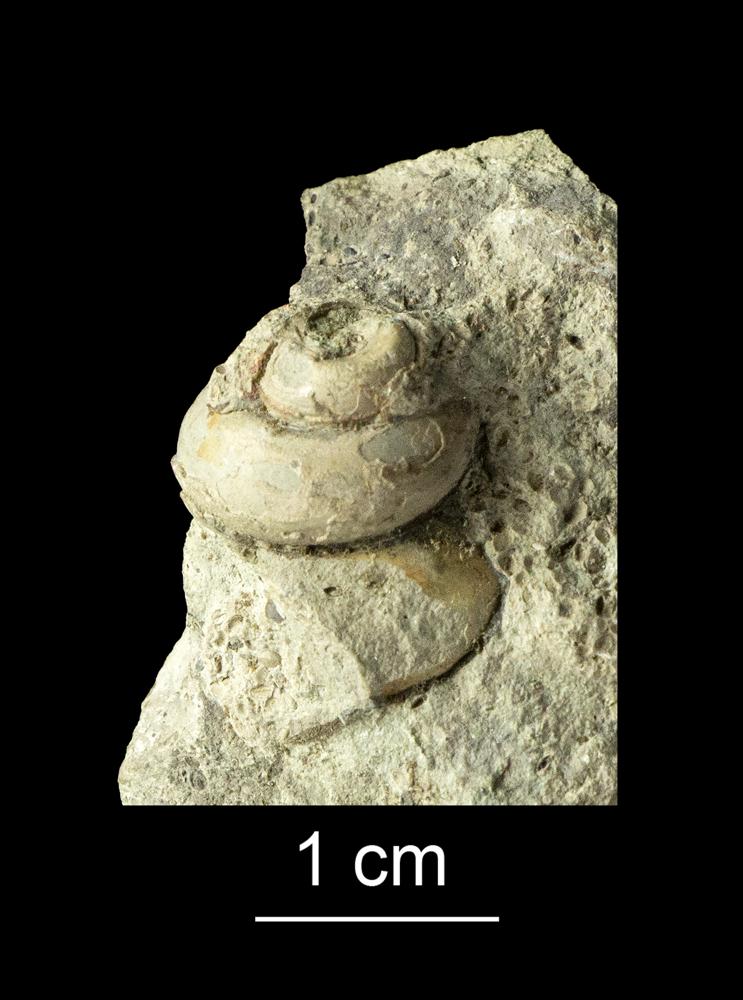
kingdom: Animalia
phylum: Mollusca
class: Gastropoda
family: Lophospiridae
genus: Loxoplocus
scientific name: Loxoplocus Turbo silurica
